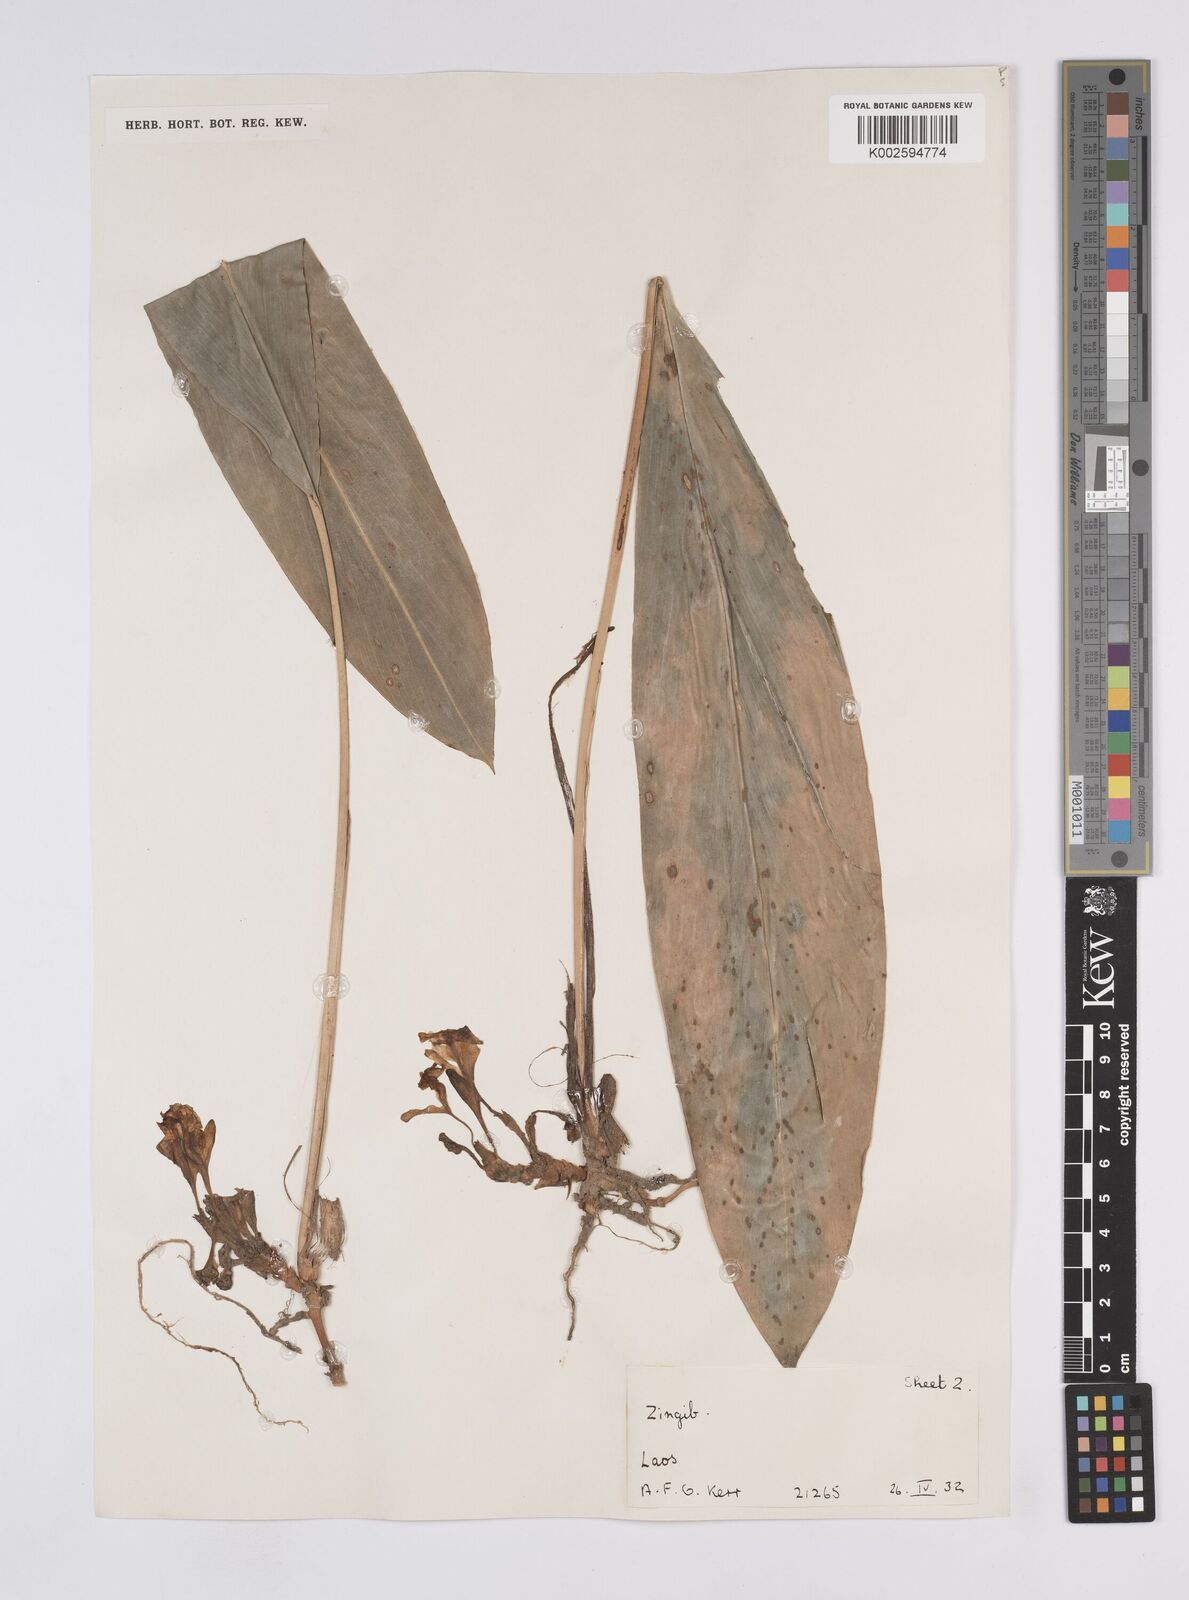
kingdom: Plantae
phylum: Tracheophyta
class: Liliopsida
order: Zingiberales
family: Zingiberaceae
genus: Amomum
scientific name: Amomum
